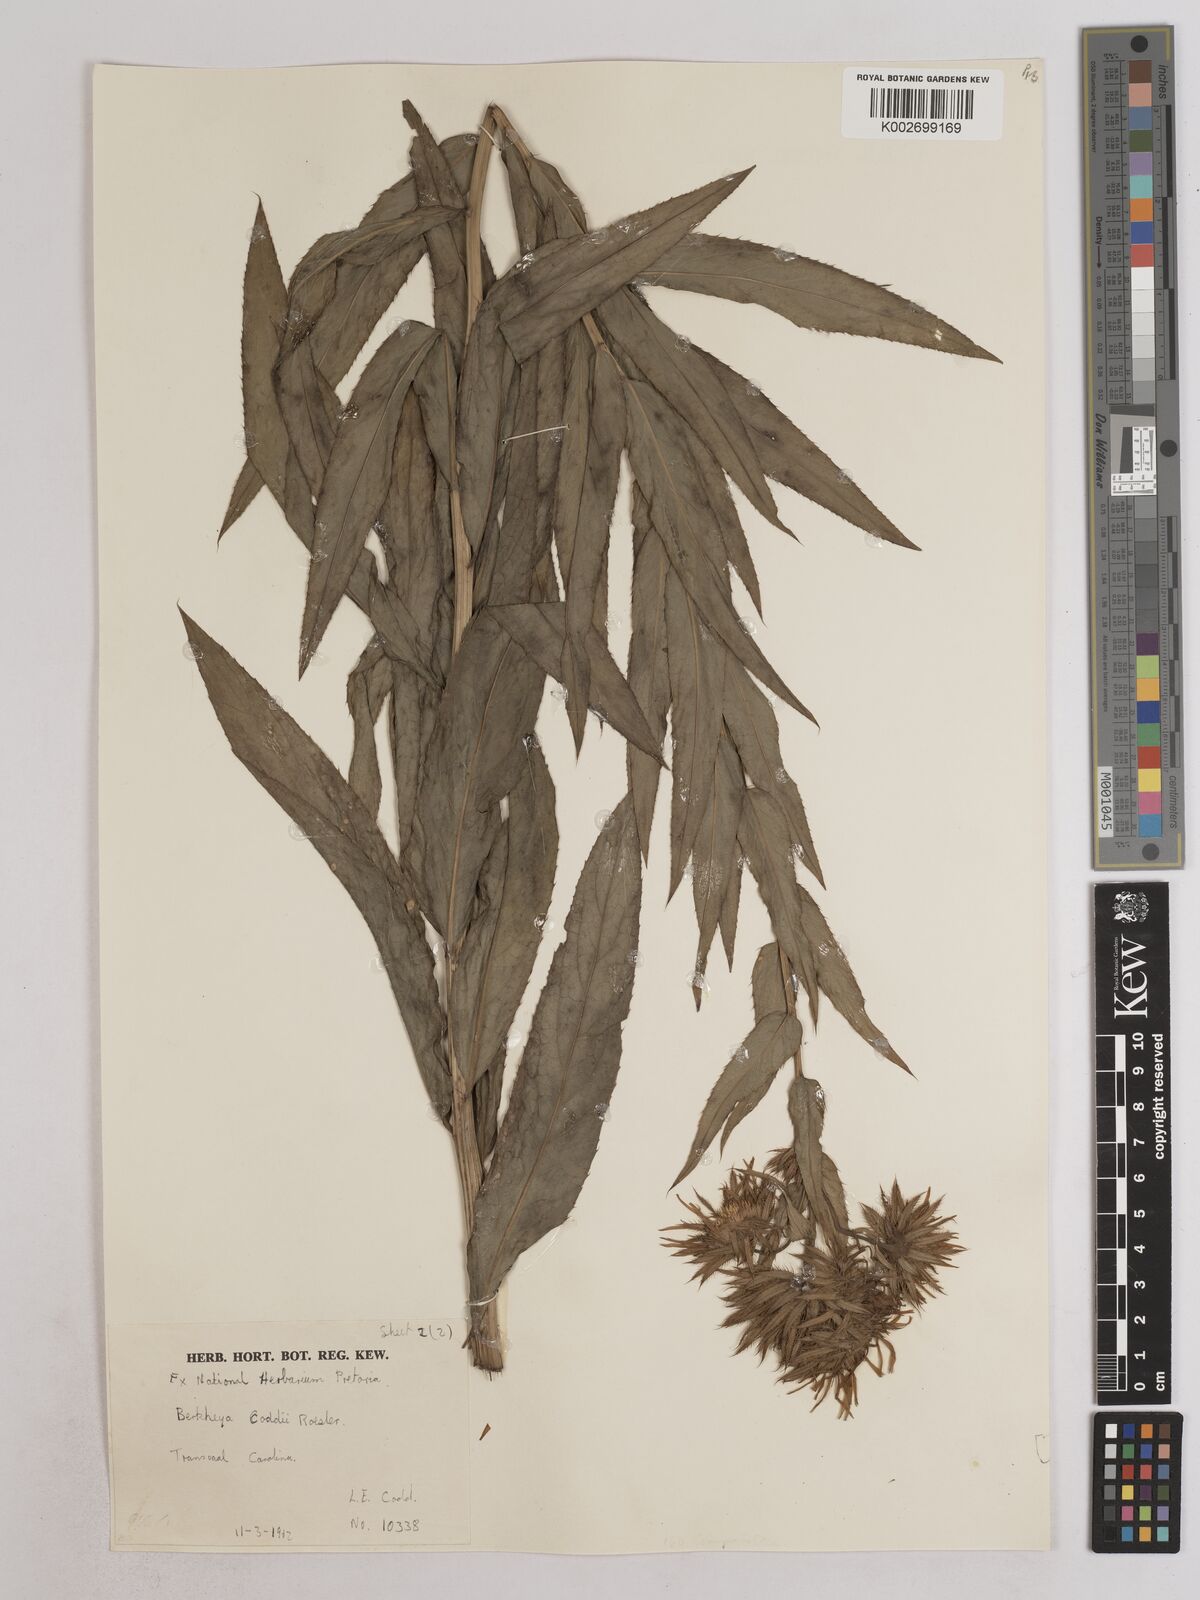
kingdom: Plantae
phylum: Tracheophyta
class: Magnoliopsida
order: Asterales
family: Asteraceae
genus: Berkheya
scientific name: Berkheya coddii
